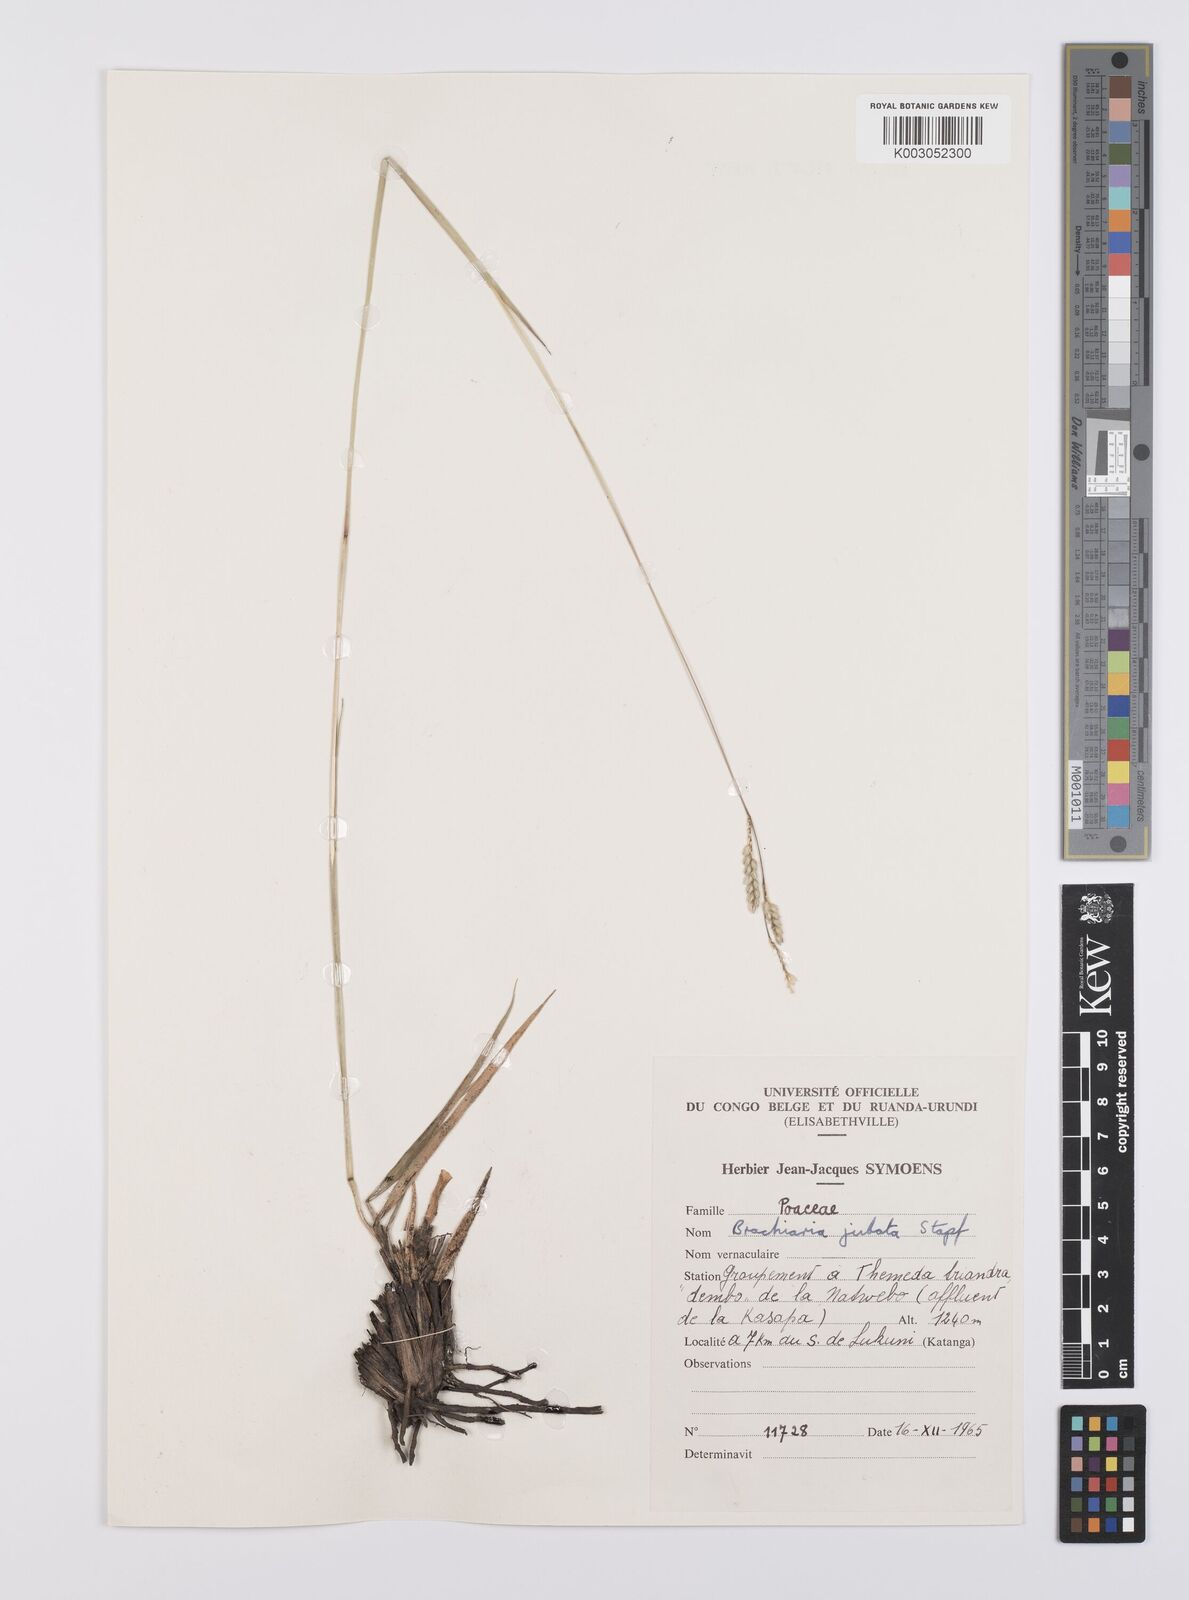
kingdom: Plantae
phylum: Tracheophyta
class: Liliopsida
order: Poales
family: Poaceae
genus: Urochloa
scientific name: Urochloa bovonei
